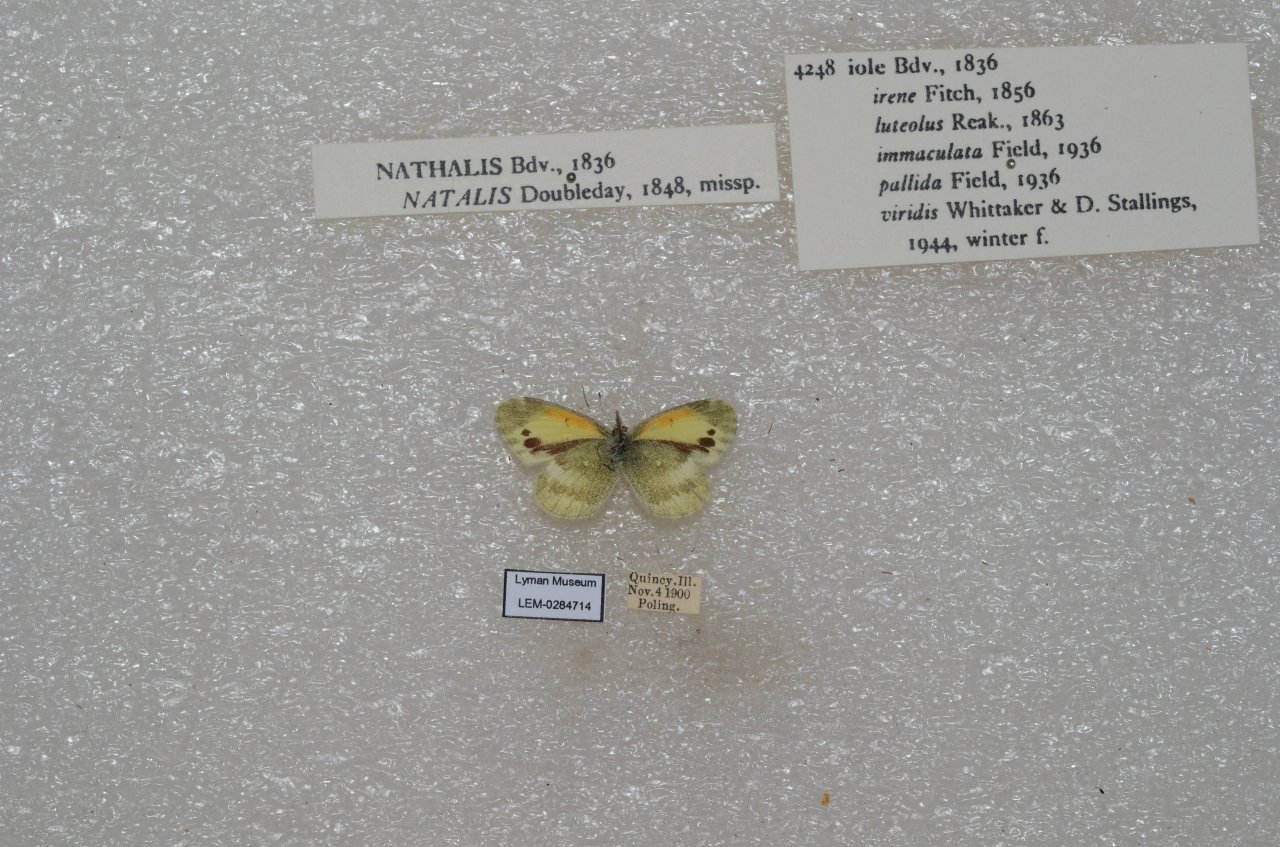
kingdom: Animalia
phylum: Arthropoda
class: Insecta
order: Lepidoptera
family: Pieridae
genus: Nathalis
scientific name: Nathalis iole
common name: Dainty Sulphur
